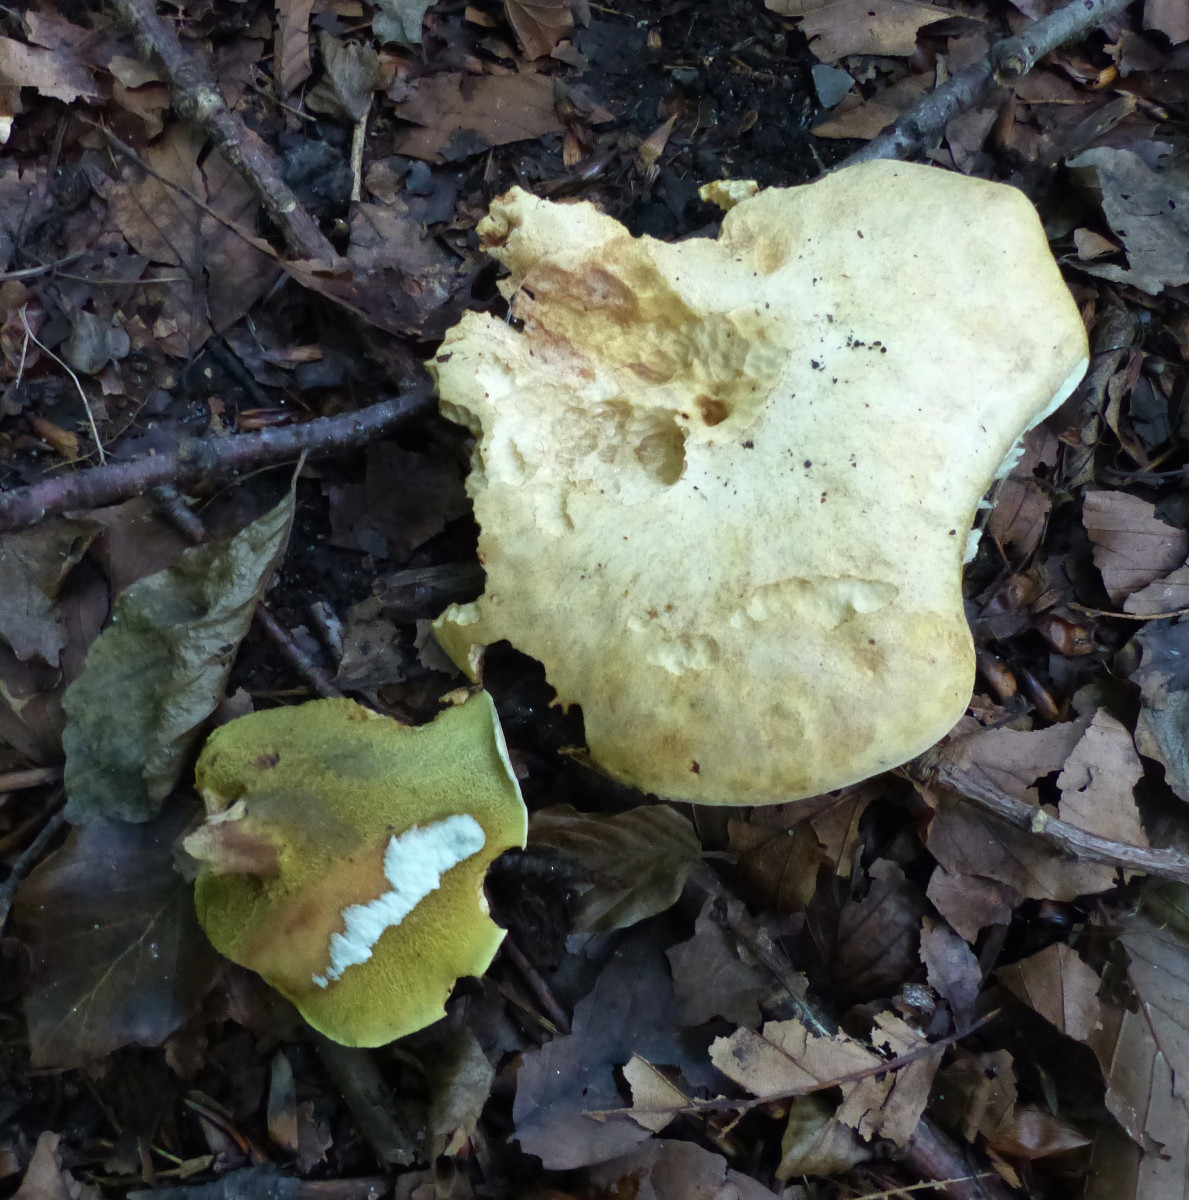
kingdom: Fungi
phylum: Basidiomycota
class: Agaricomycetes
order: Boletales
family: Paxillaceae
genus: Gyrodon
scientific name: Gyrodon lividus
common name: ellerørhat
